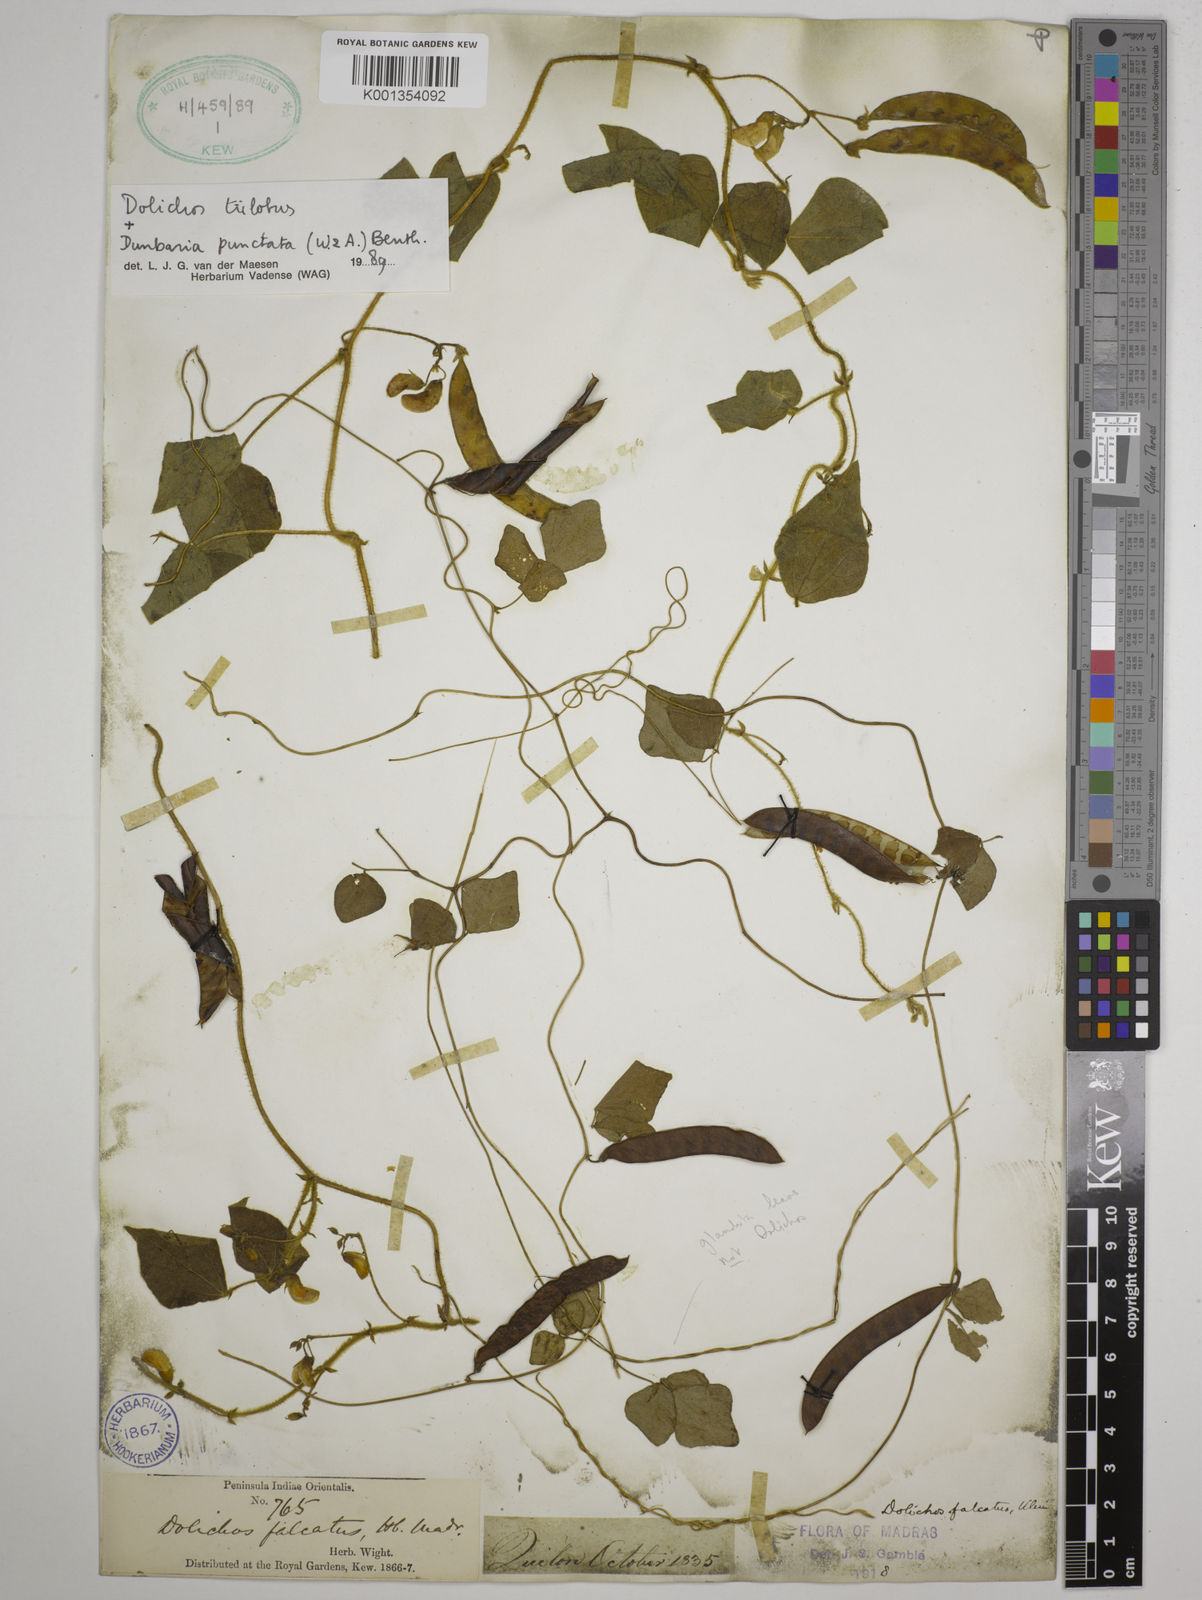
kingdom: Plantae
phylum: Tracheophyta
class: Magnoliopsida
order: Fabales
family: Fabaceae
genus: Dolichos
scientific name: Dolichos
